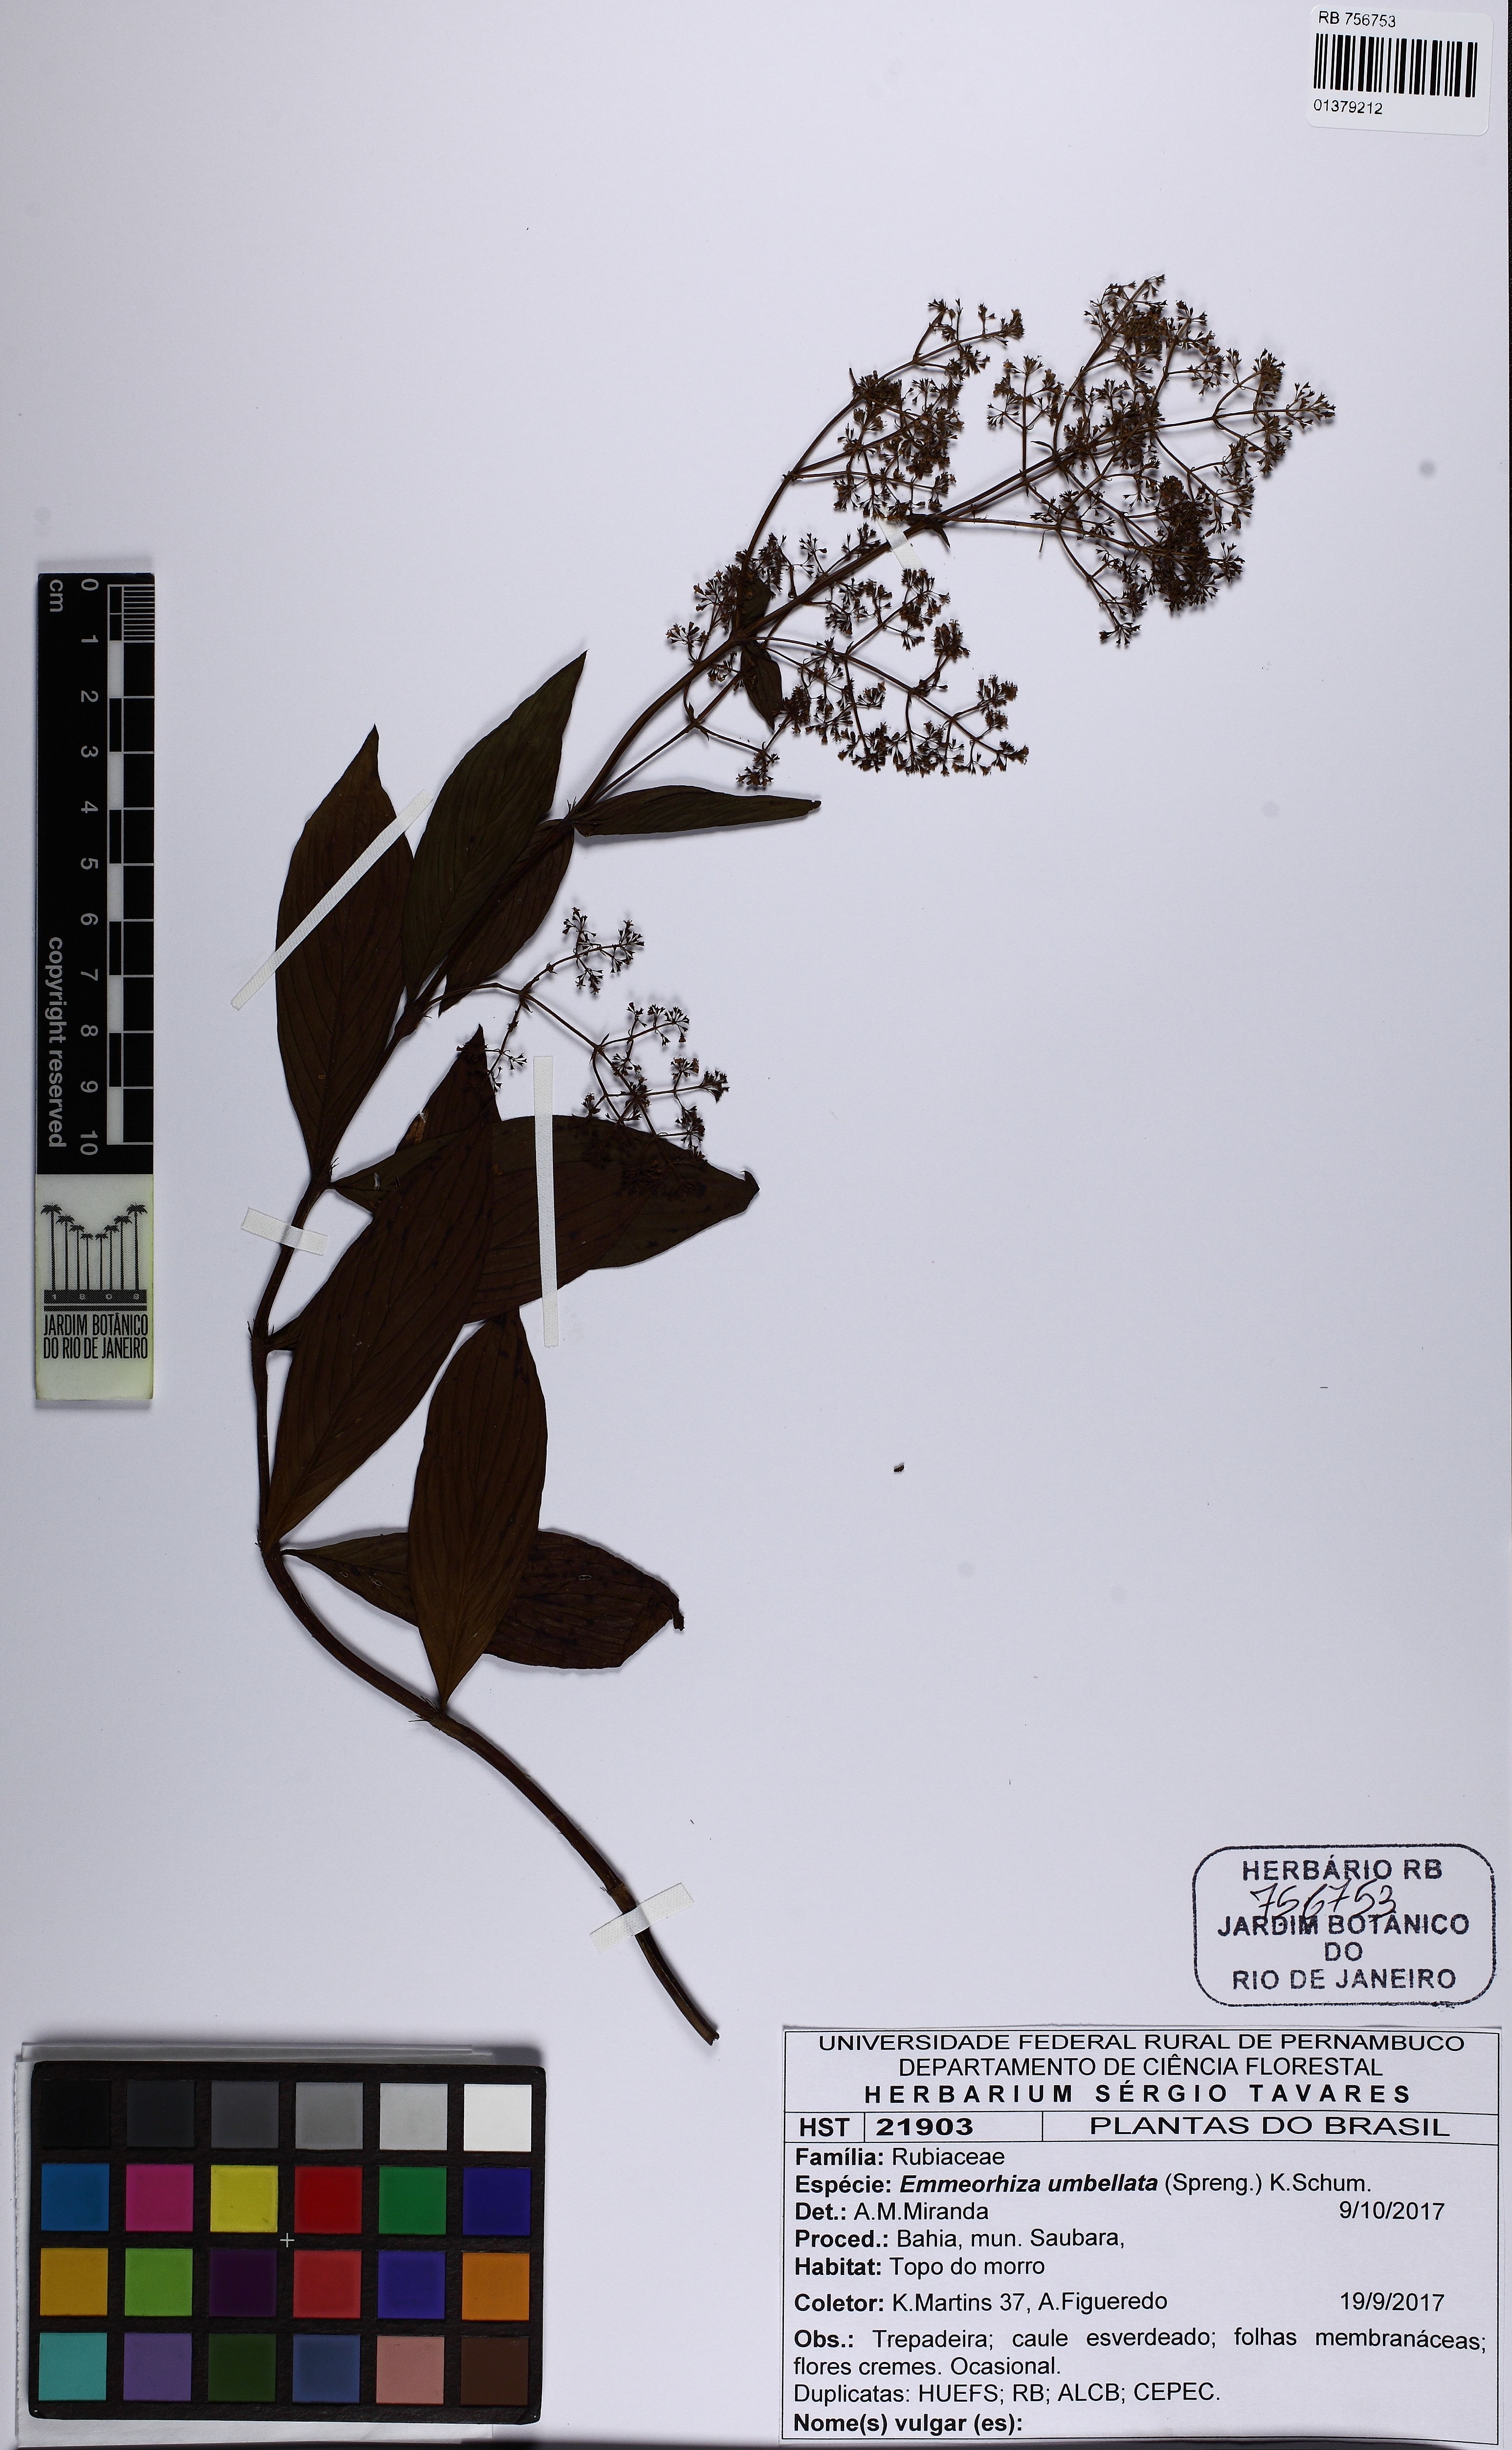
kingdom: Plantae
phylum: Tracheophyta
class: Magnoliopsida
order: Gentianales
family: Rubiaceae
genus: Emmeorhiza
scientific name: Emmeorhiza umbellata
